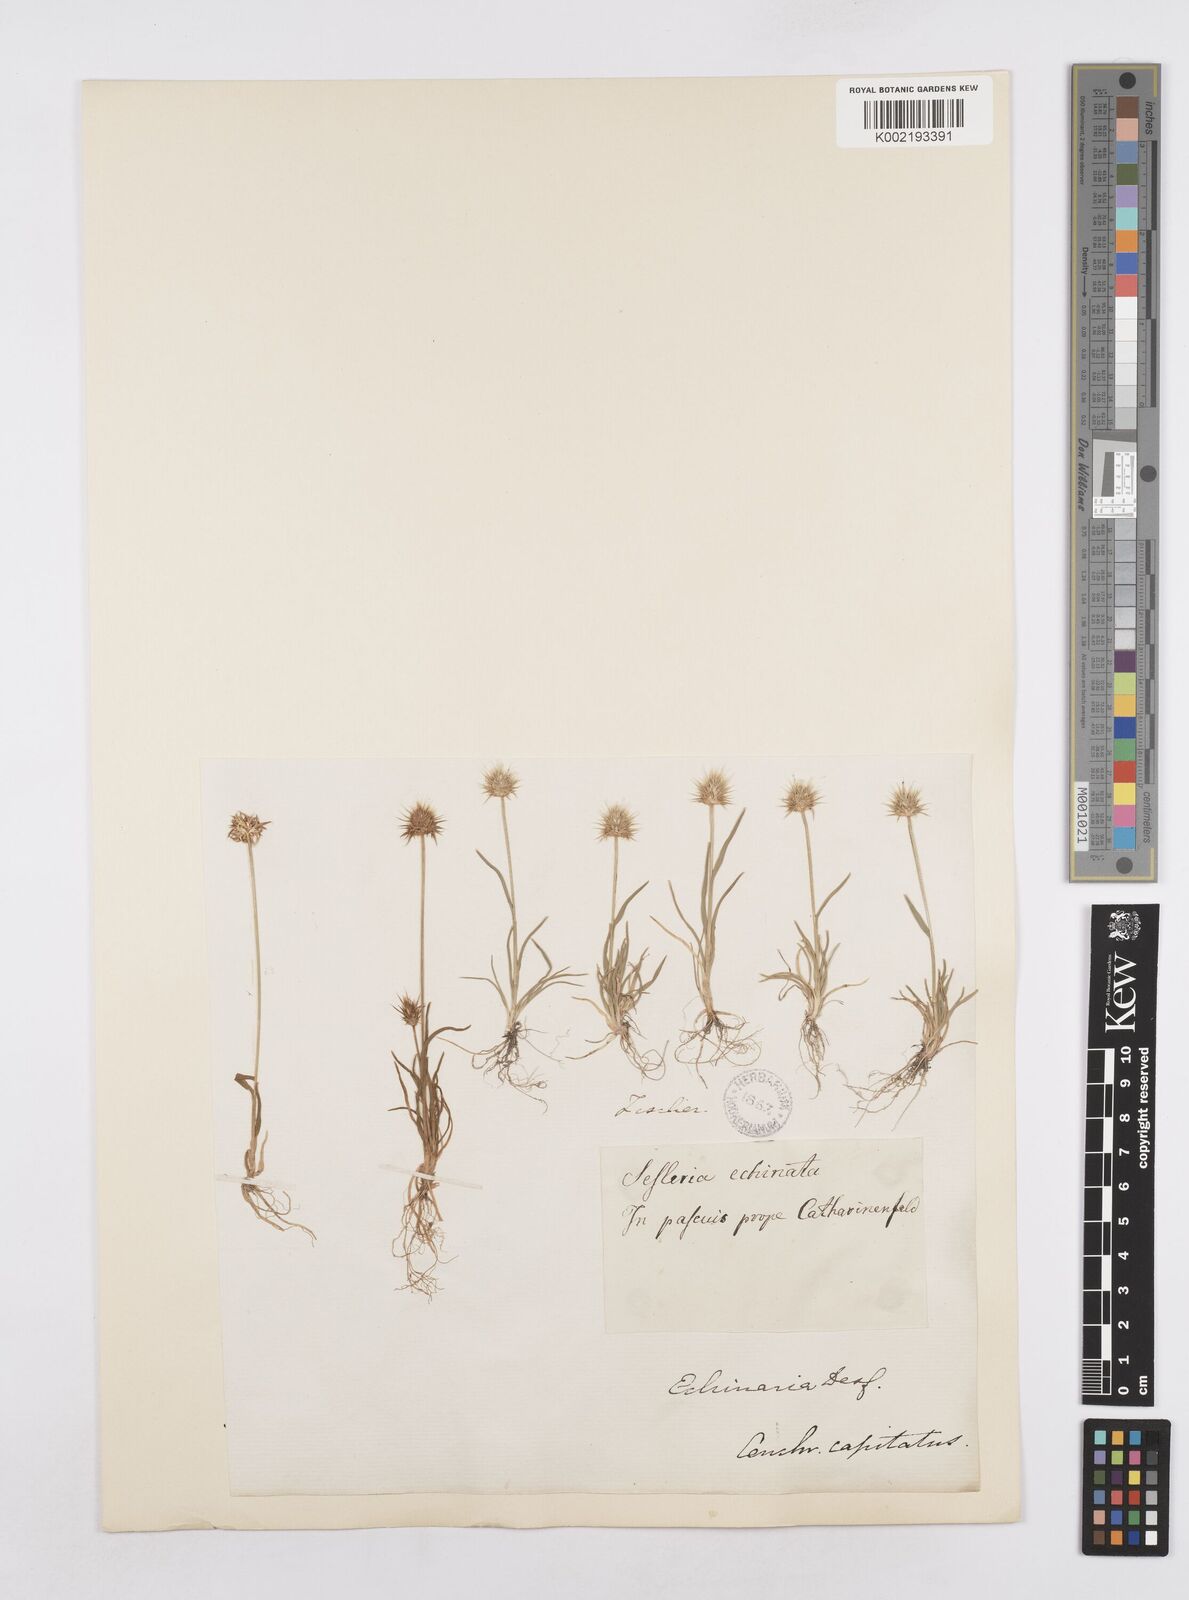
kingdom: Plantae
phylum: Tracheophyta
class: Liliopsida
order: Poales
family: Poaceae
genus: Echinaria
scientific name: Echinaria capitata
